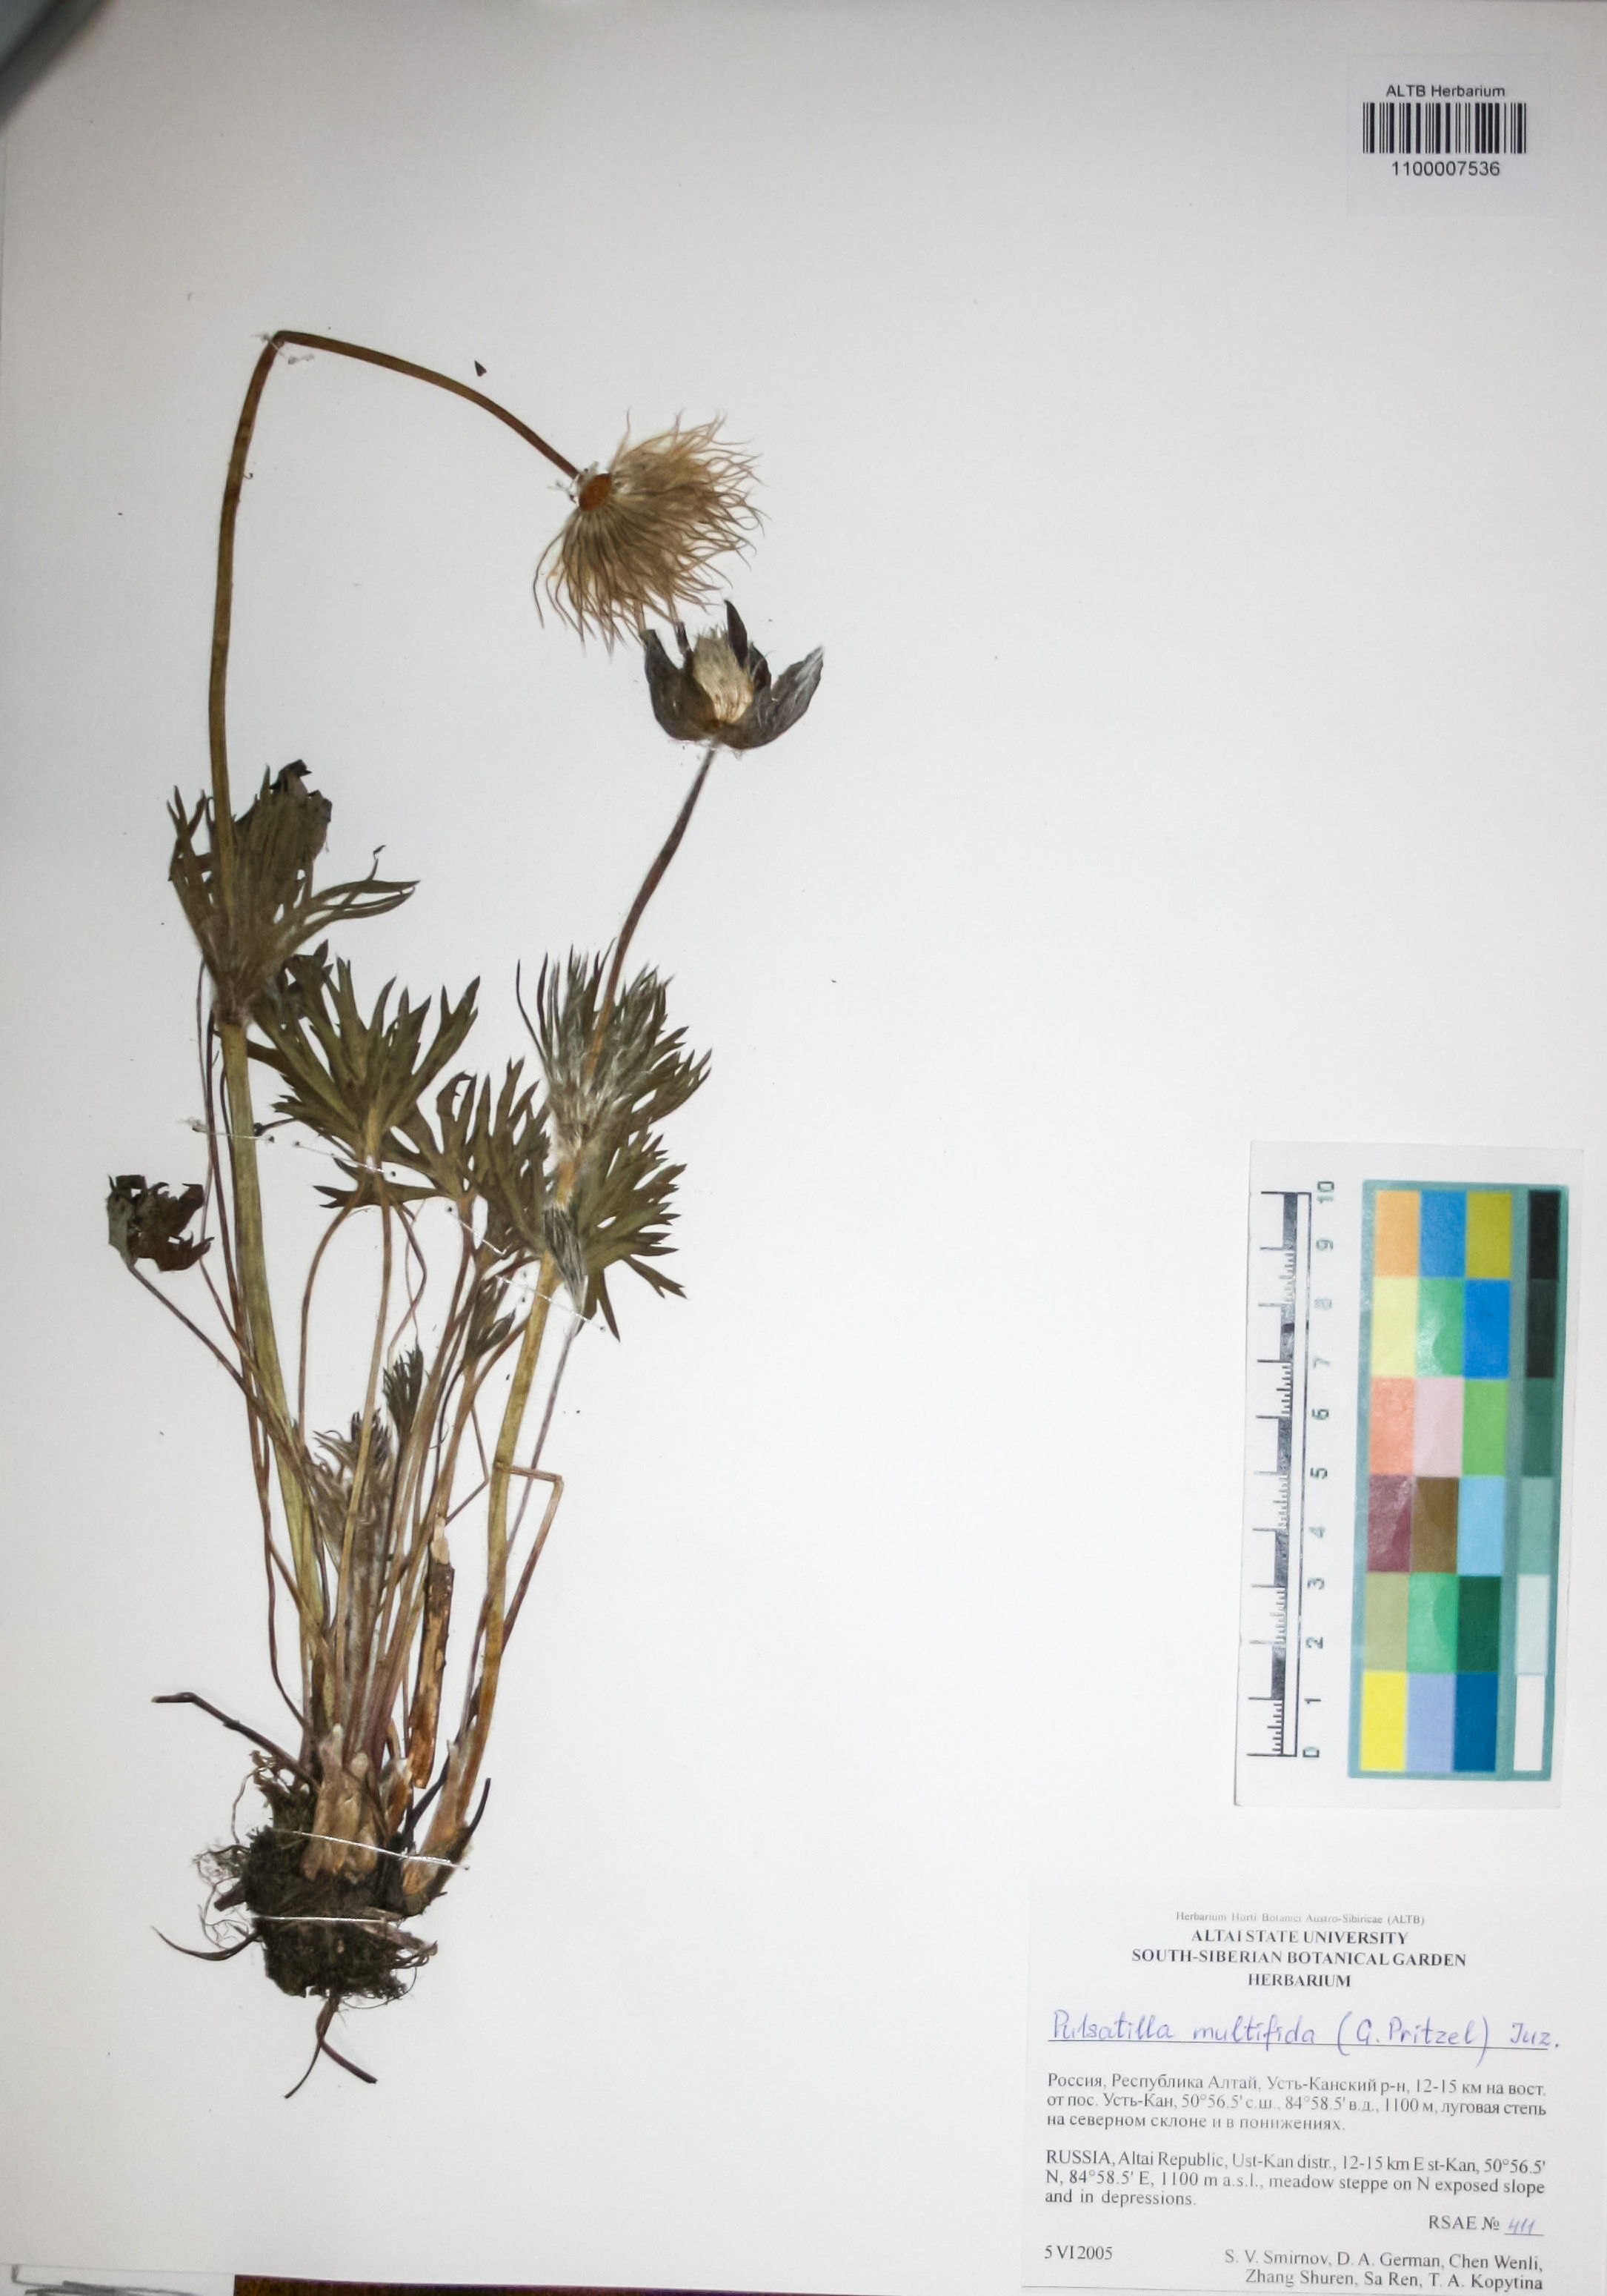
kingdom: Plantae
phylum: Tracheophyta
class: Magnoliopsida
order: Ranunculales
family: Ranunculaceae
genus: Pulsatilla
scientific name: Pulsatilla patens
